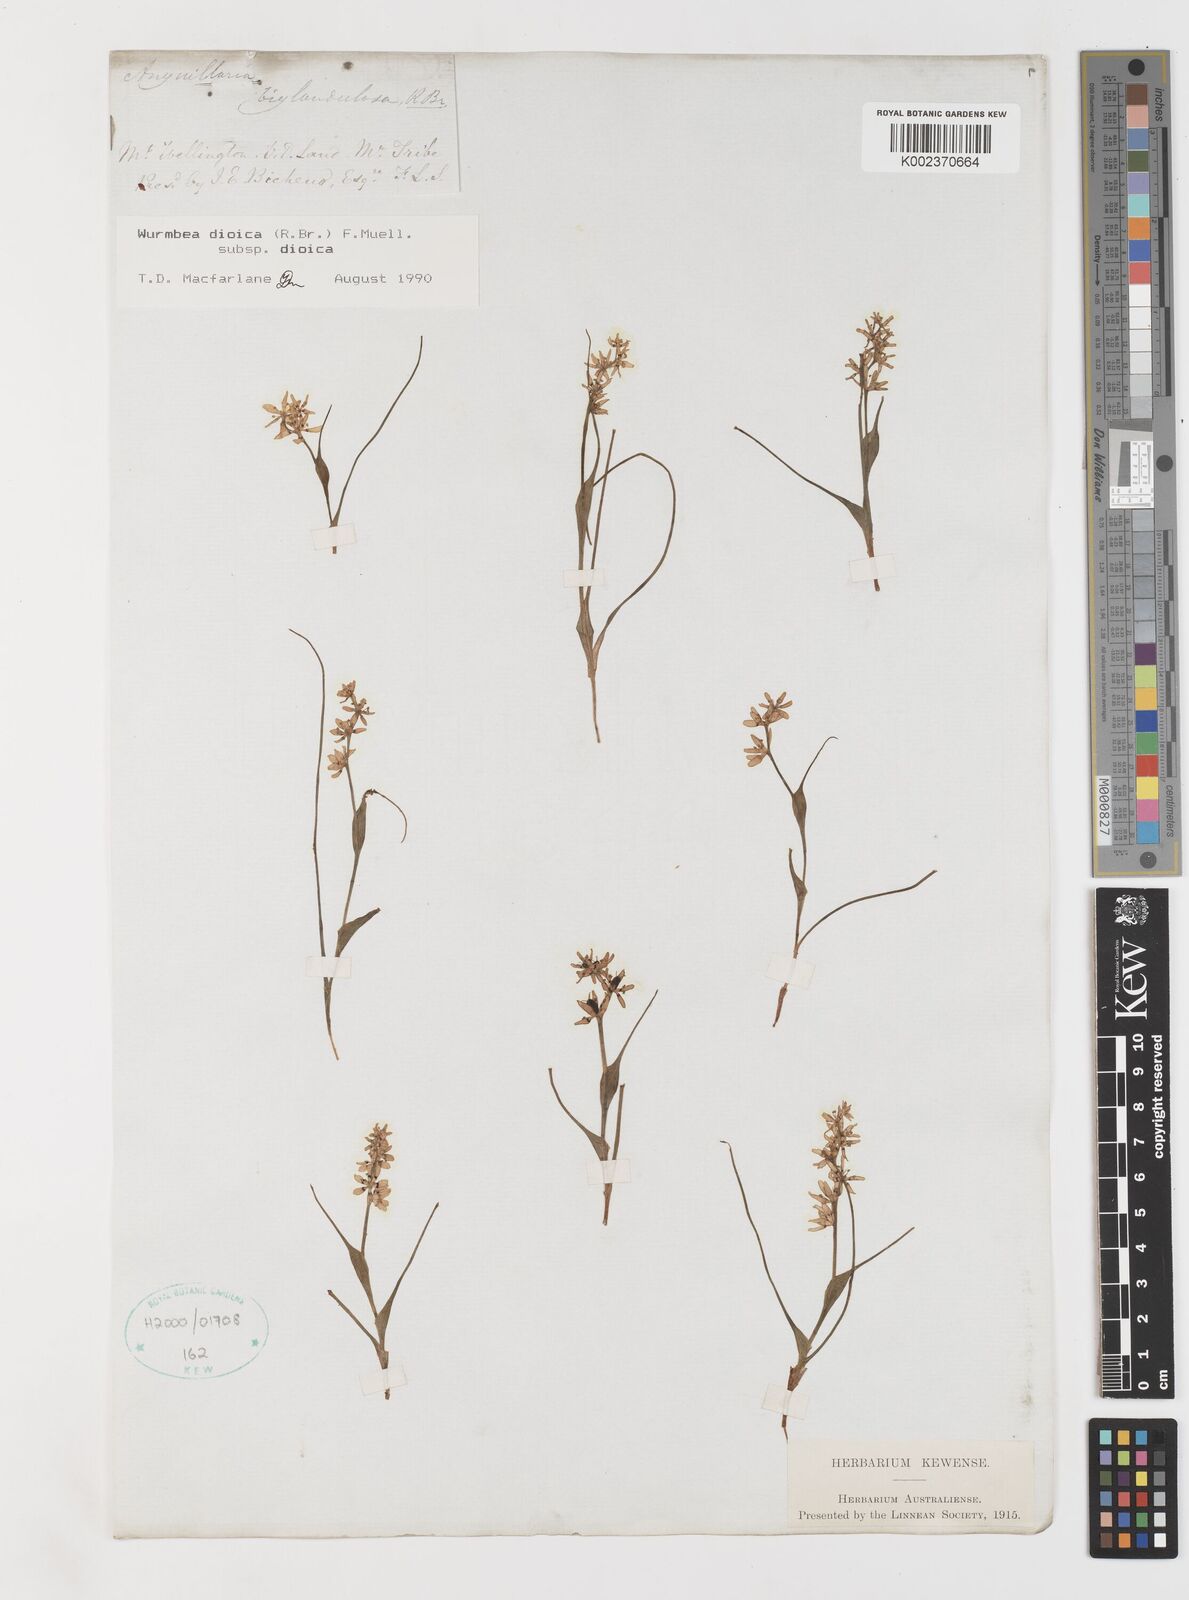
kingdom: Plantae
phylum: Tracheophyta
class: Liliopsida
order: Liliales
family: Colchicaceae
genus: Wurmbea
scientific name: Wurmbea dioica
